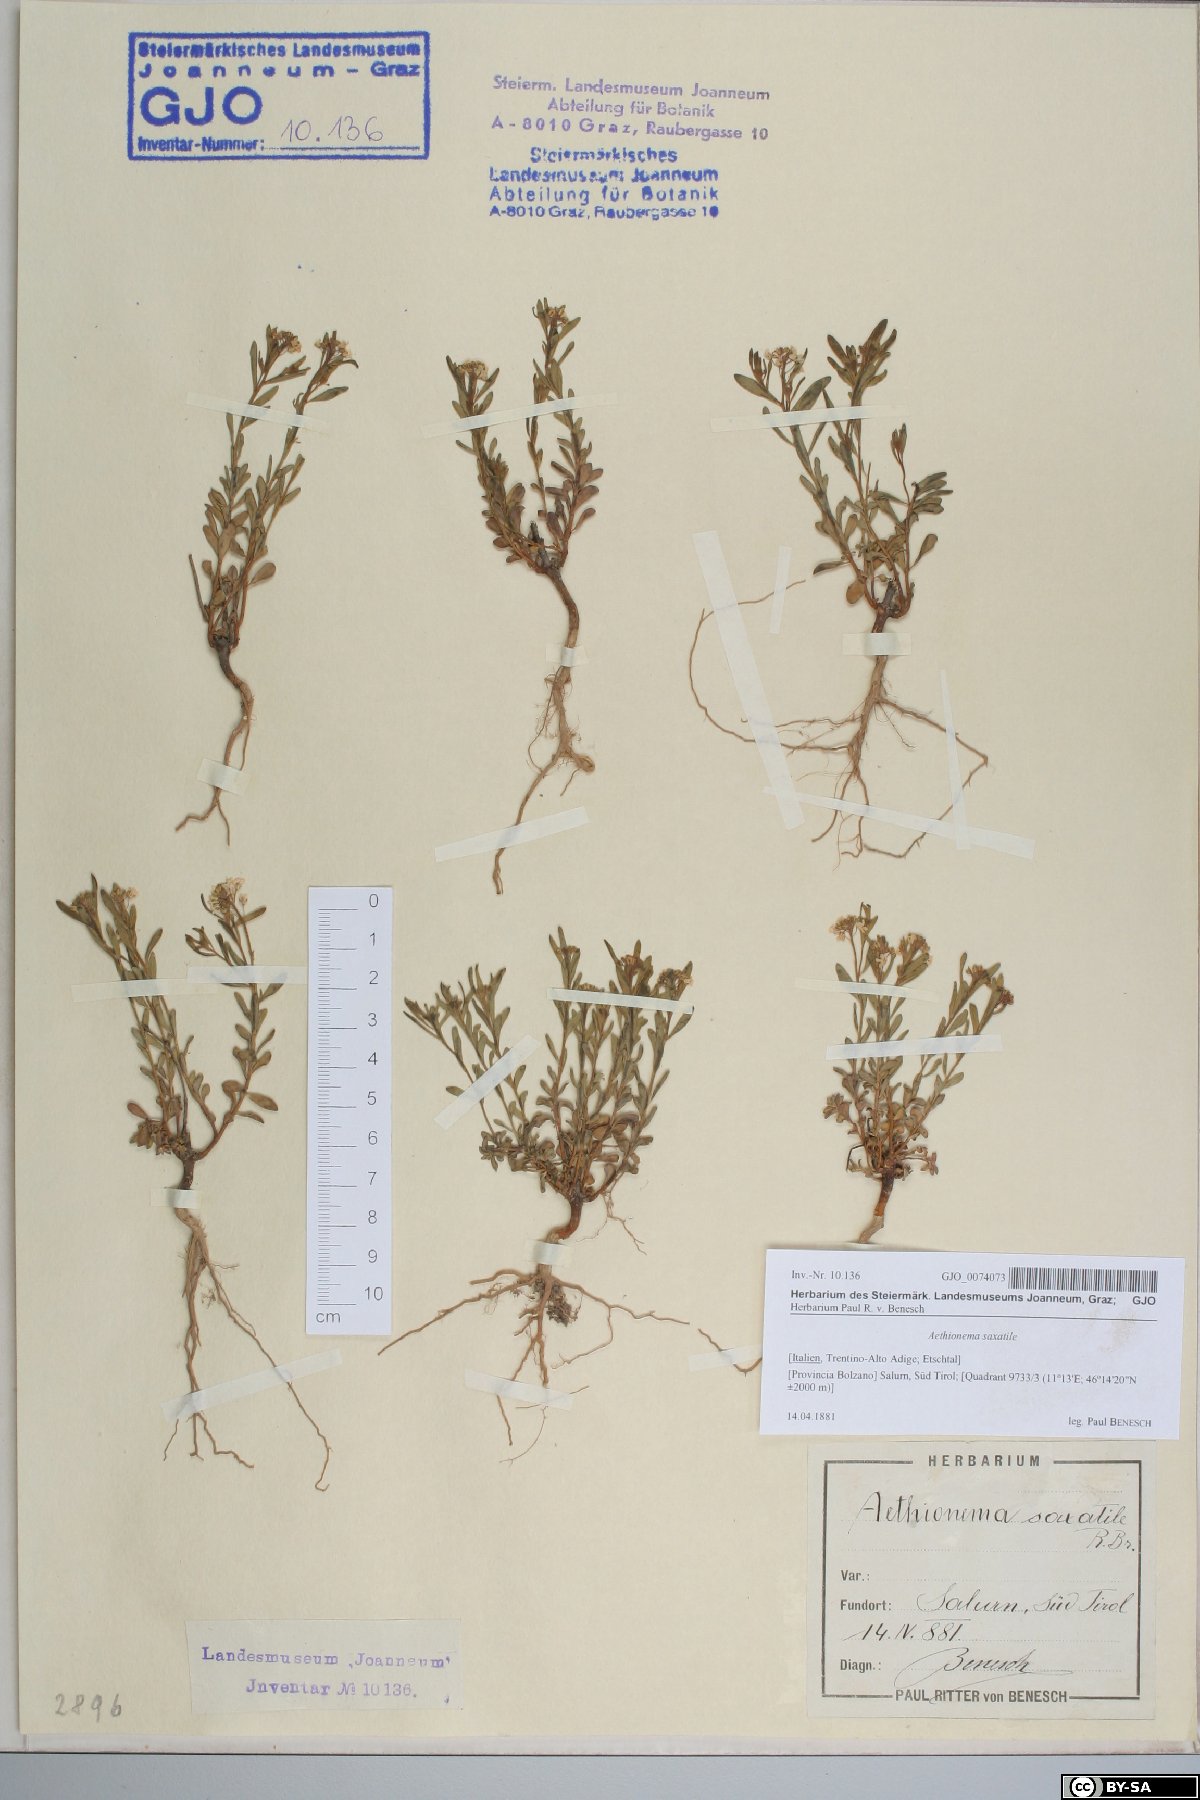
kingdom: Plantae
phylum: Tracheophyta
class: Magnoliopsida
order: Brassicales
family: Brassicaceae
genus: Aethionema
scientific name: Aethionema saxatile
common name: Burnt candytuft
